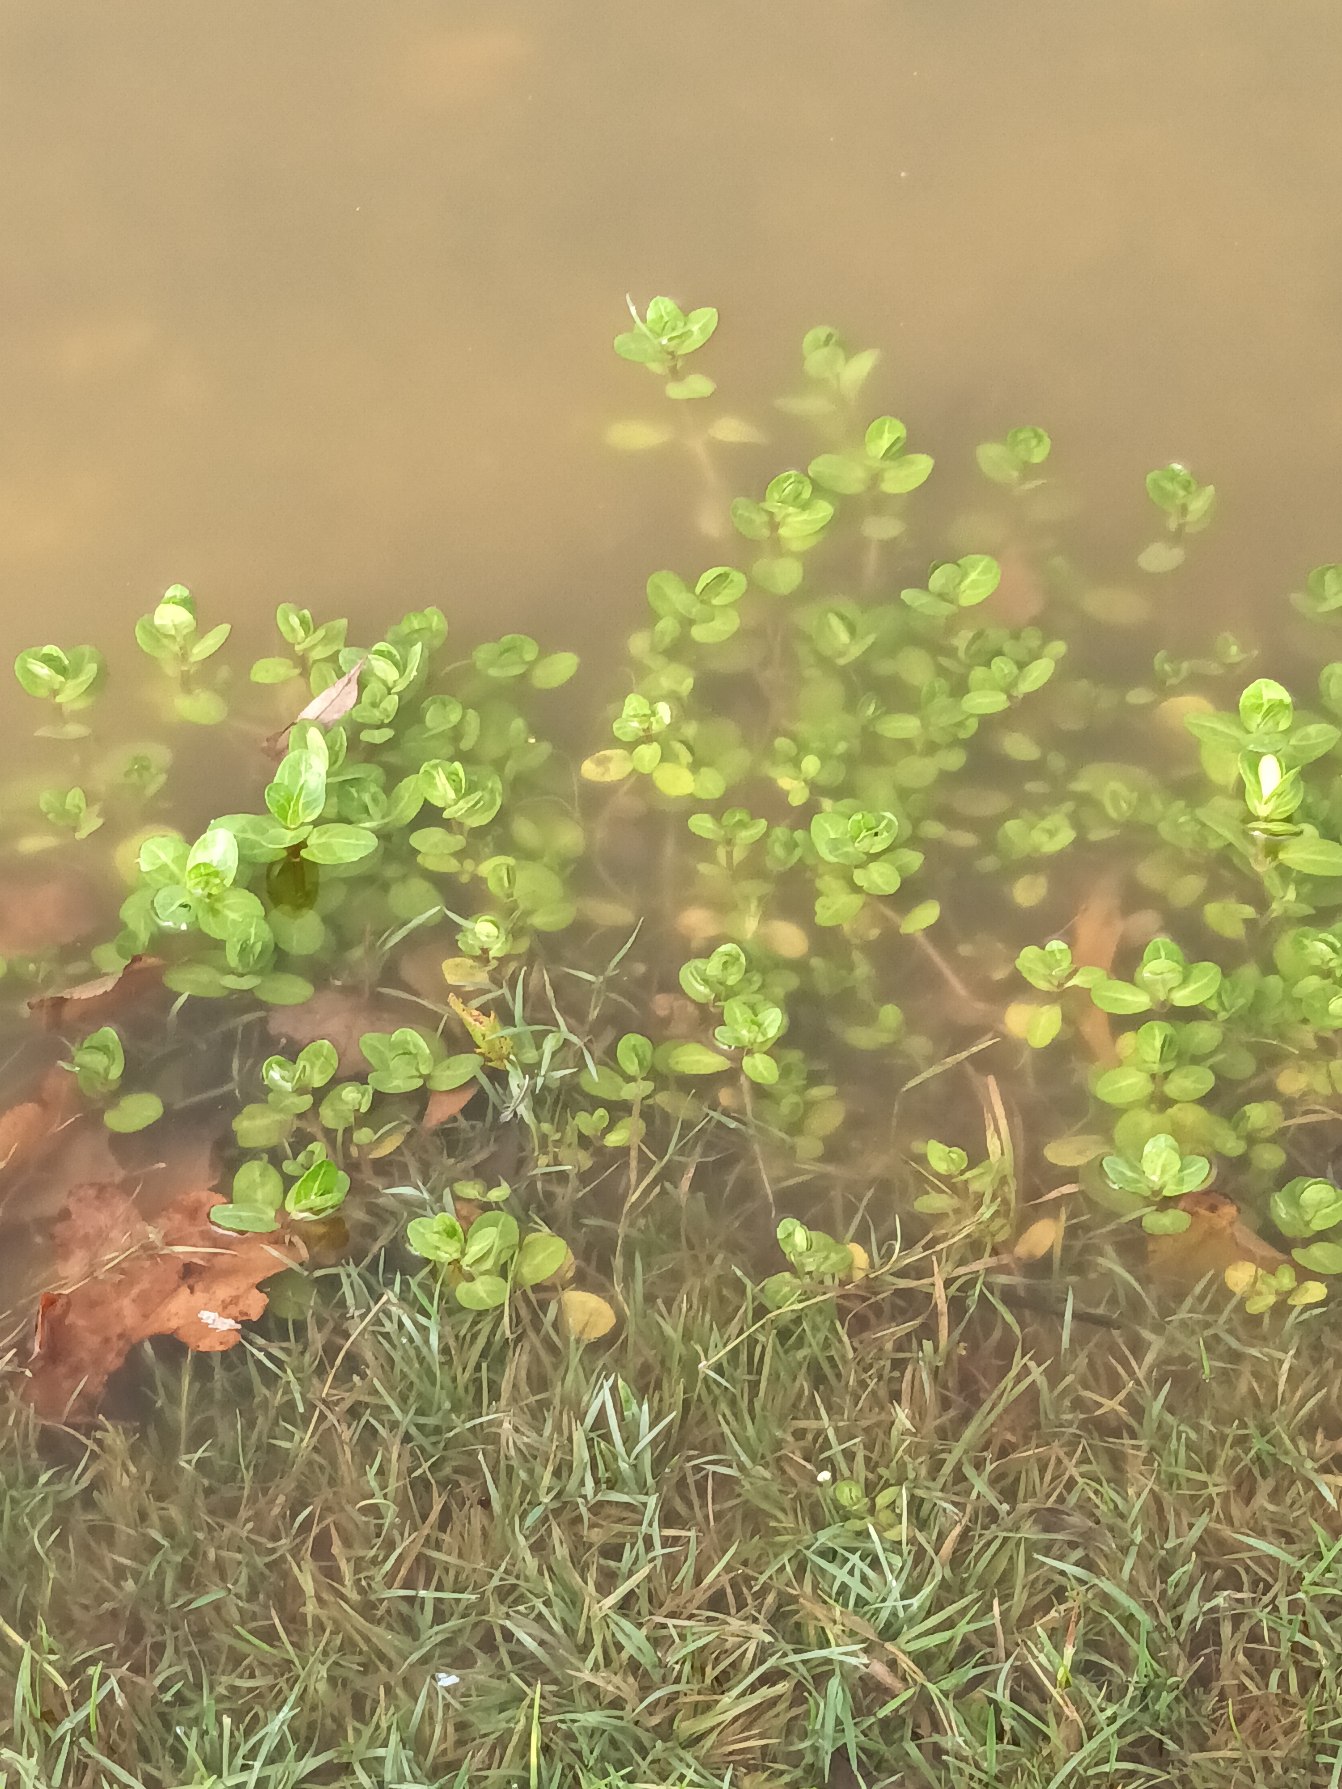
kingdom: Plantae
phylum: Tracheophyta
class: Magnoliopsida
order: Lamiales
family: Plantaginaceae
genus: Veronica
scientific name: Veronica beccabunga
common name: Tykbladet ærenpris
